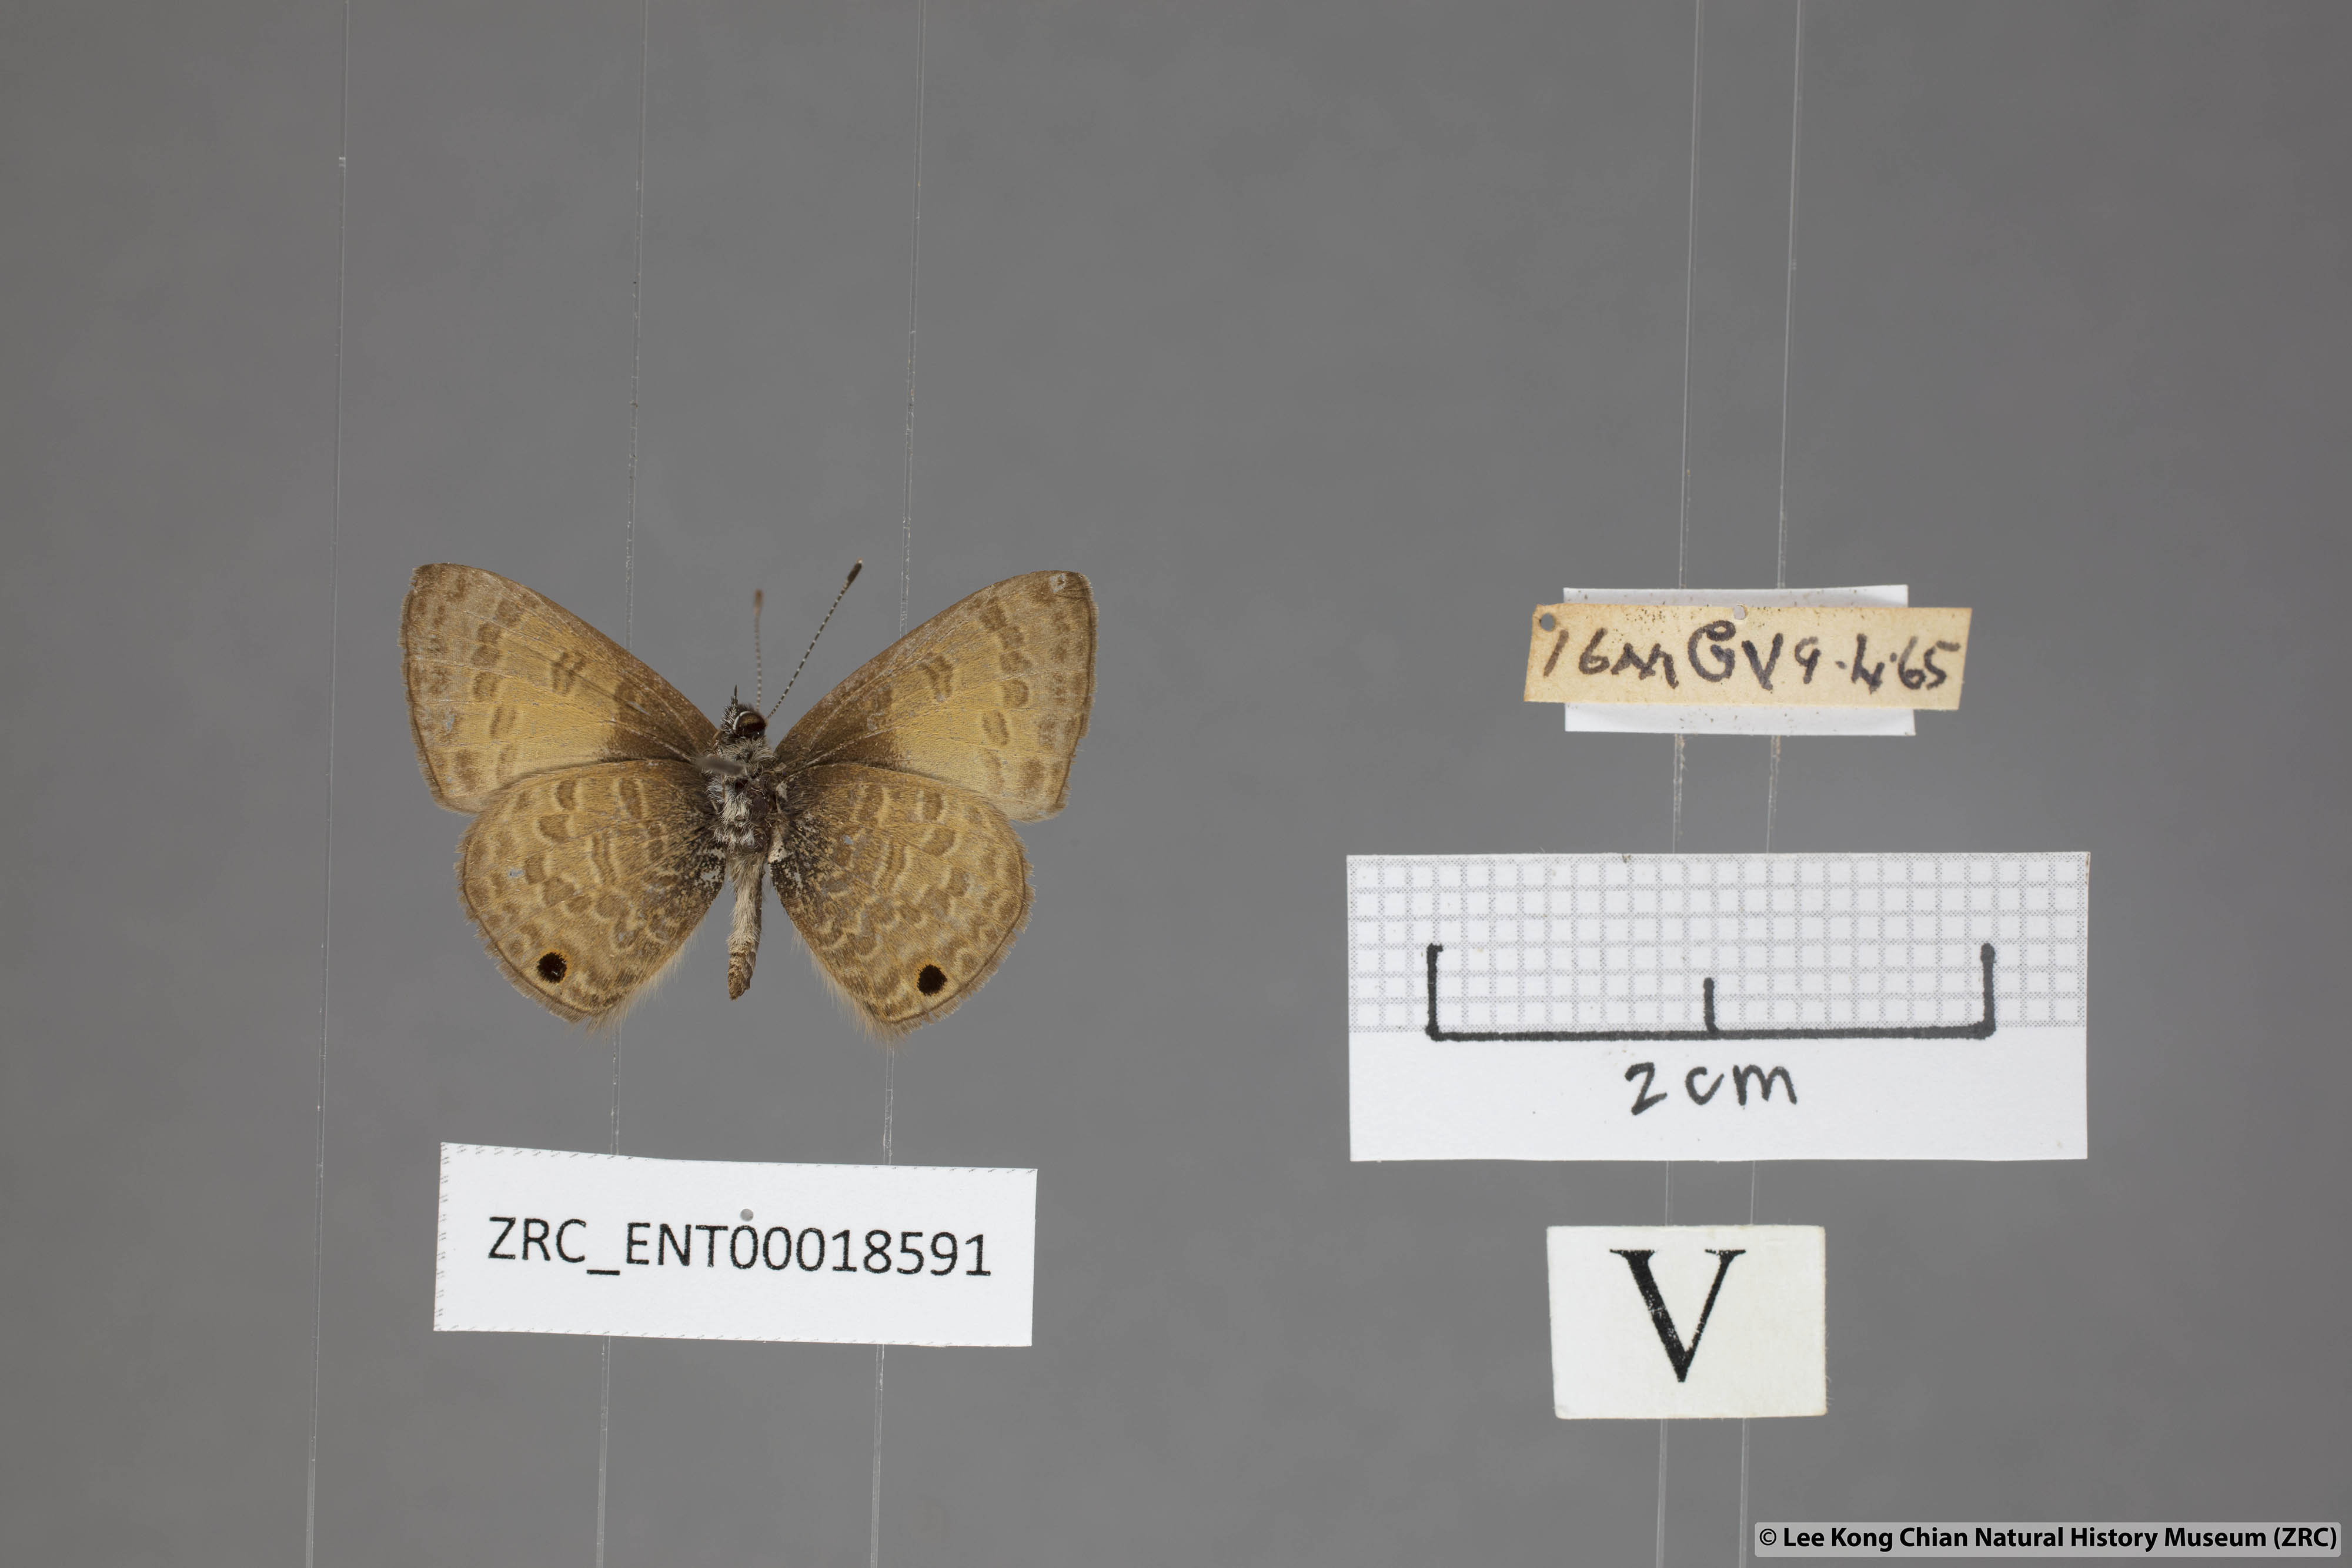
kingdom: Animalia
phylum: Arthropoda
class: Insecta
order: Lepidoptera
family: Lycaenidae
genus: Prosotas
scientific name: Prosotas gracilis
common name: Dark-based lineblue
